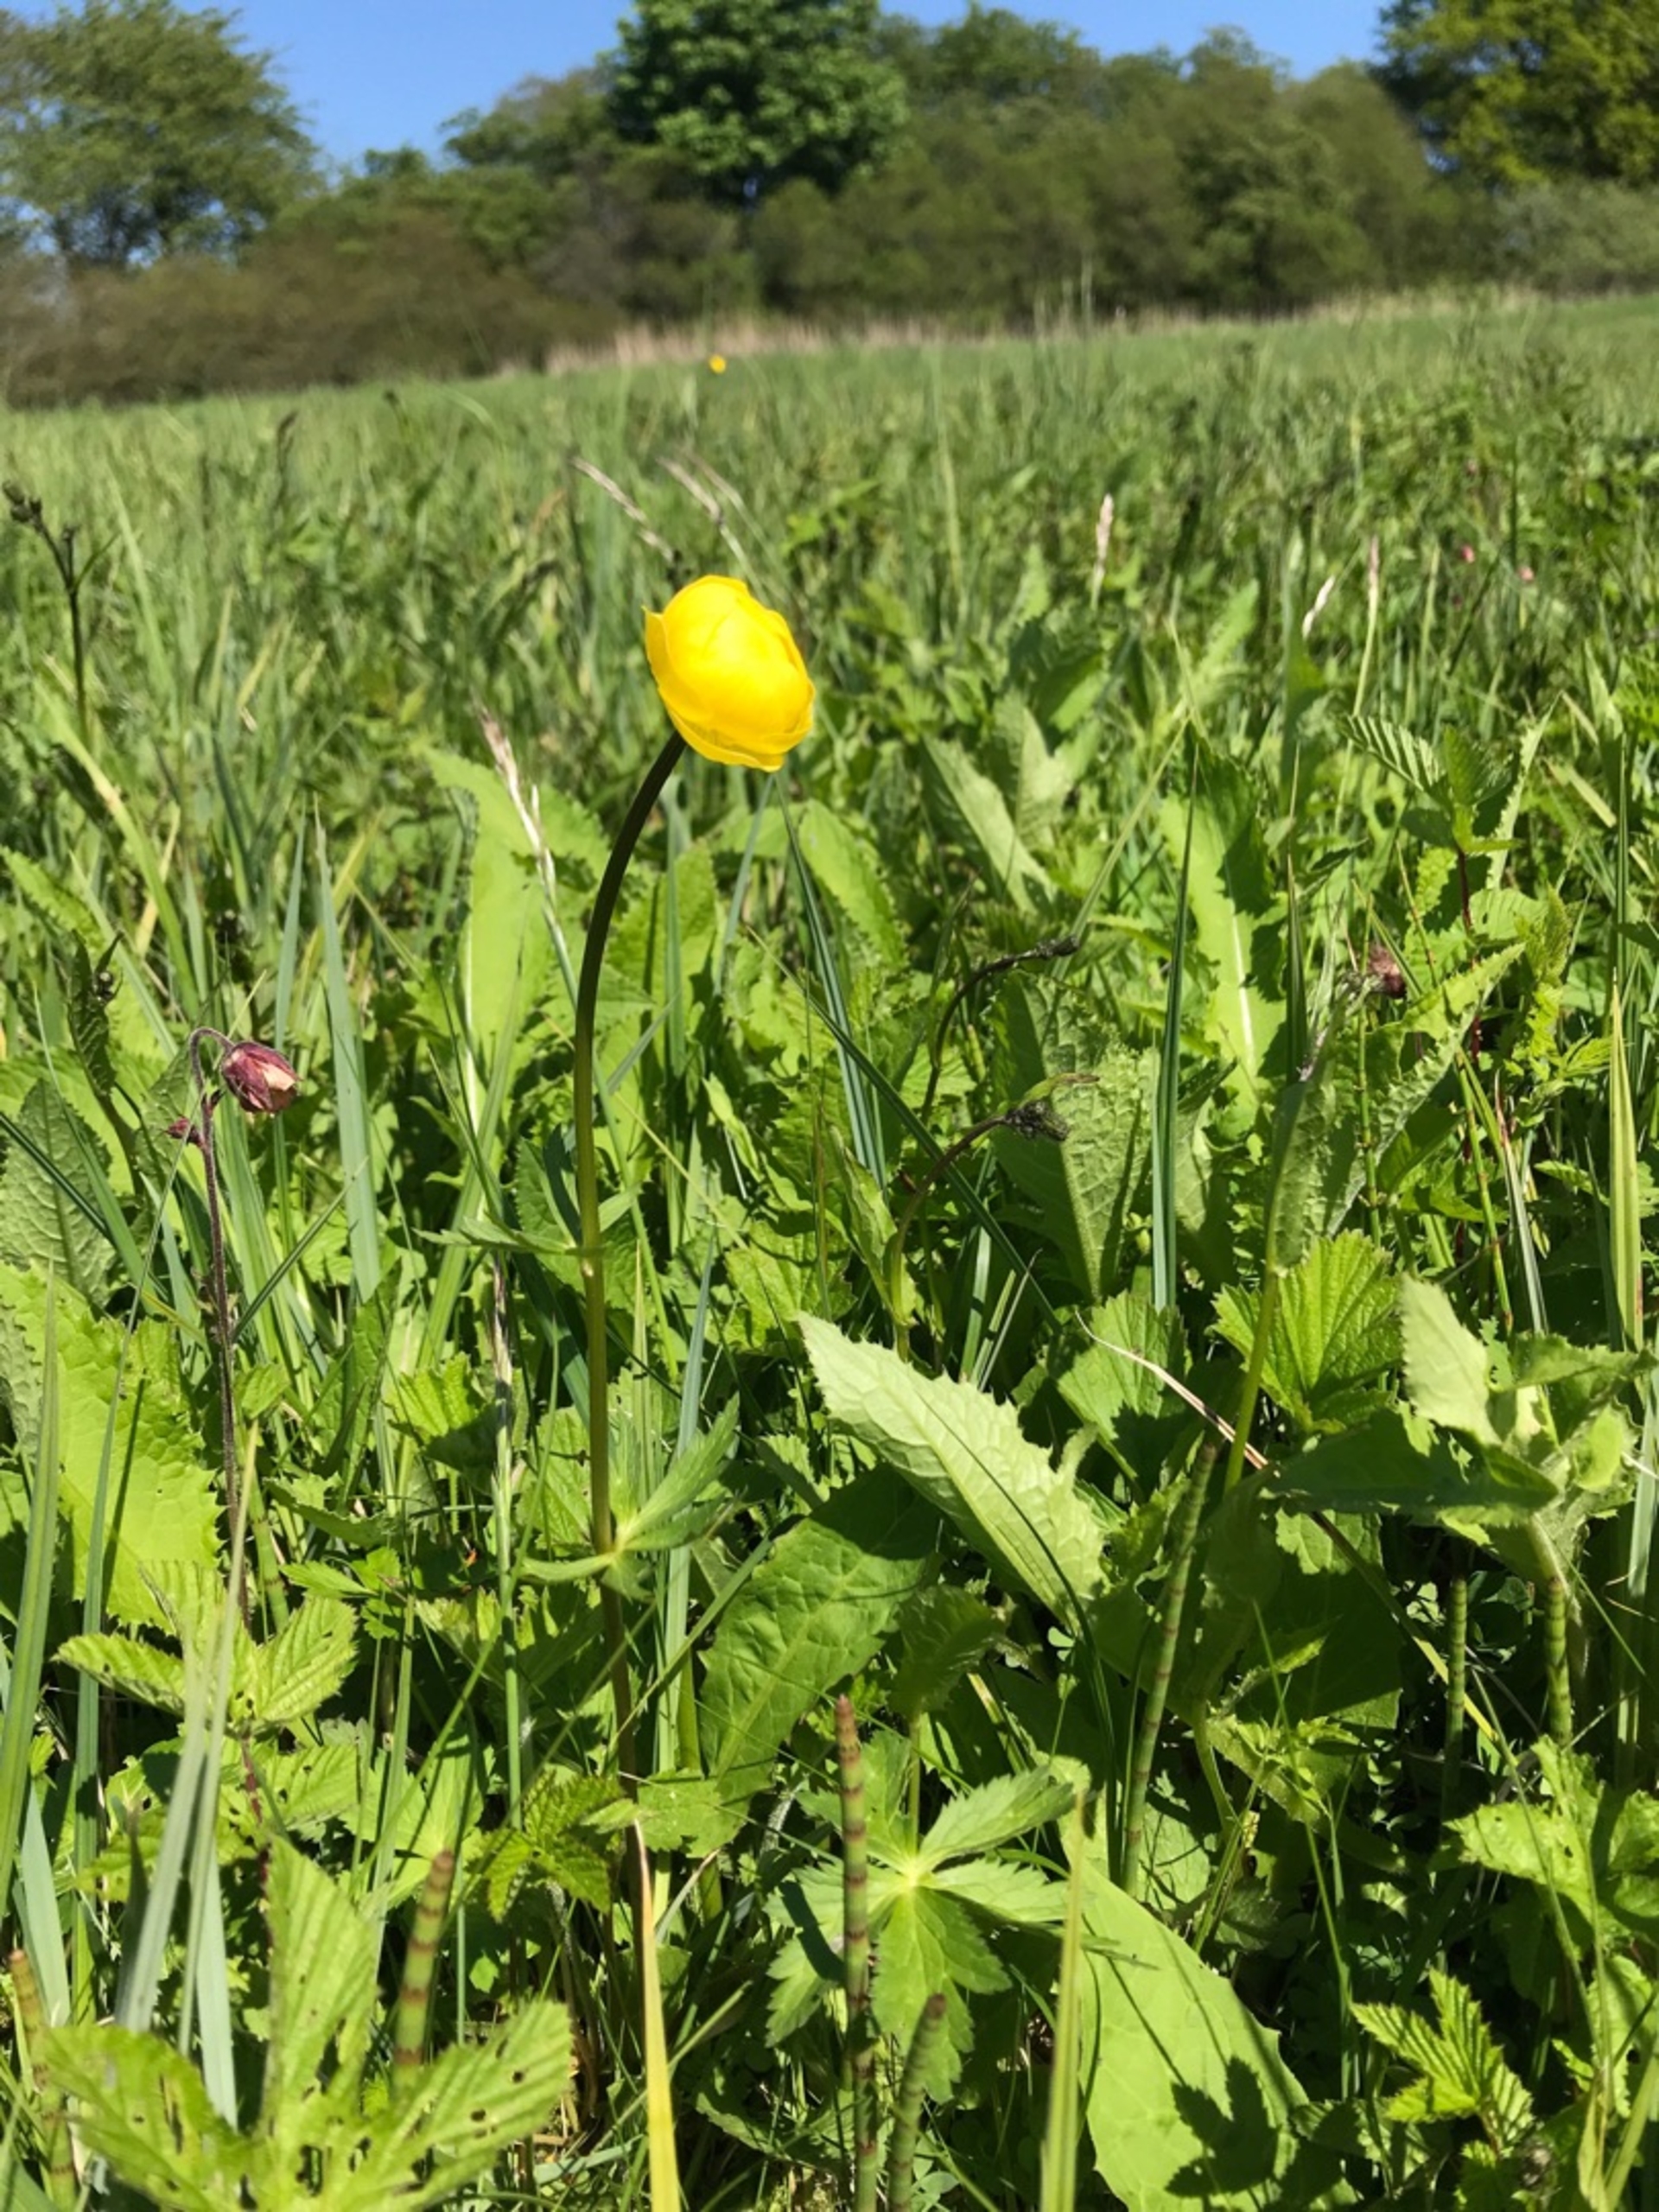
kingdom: Plantae
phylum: Tracheophyta
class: Magnoliopsida
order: Ranunculales
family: Ranunculaceae
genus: Trollius
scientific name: Trollius europaeus
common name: Engblomme
